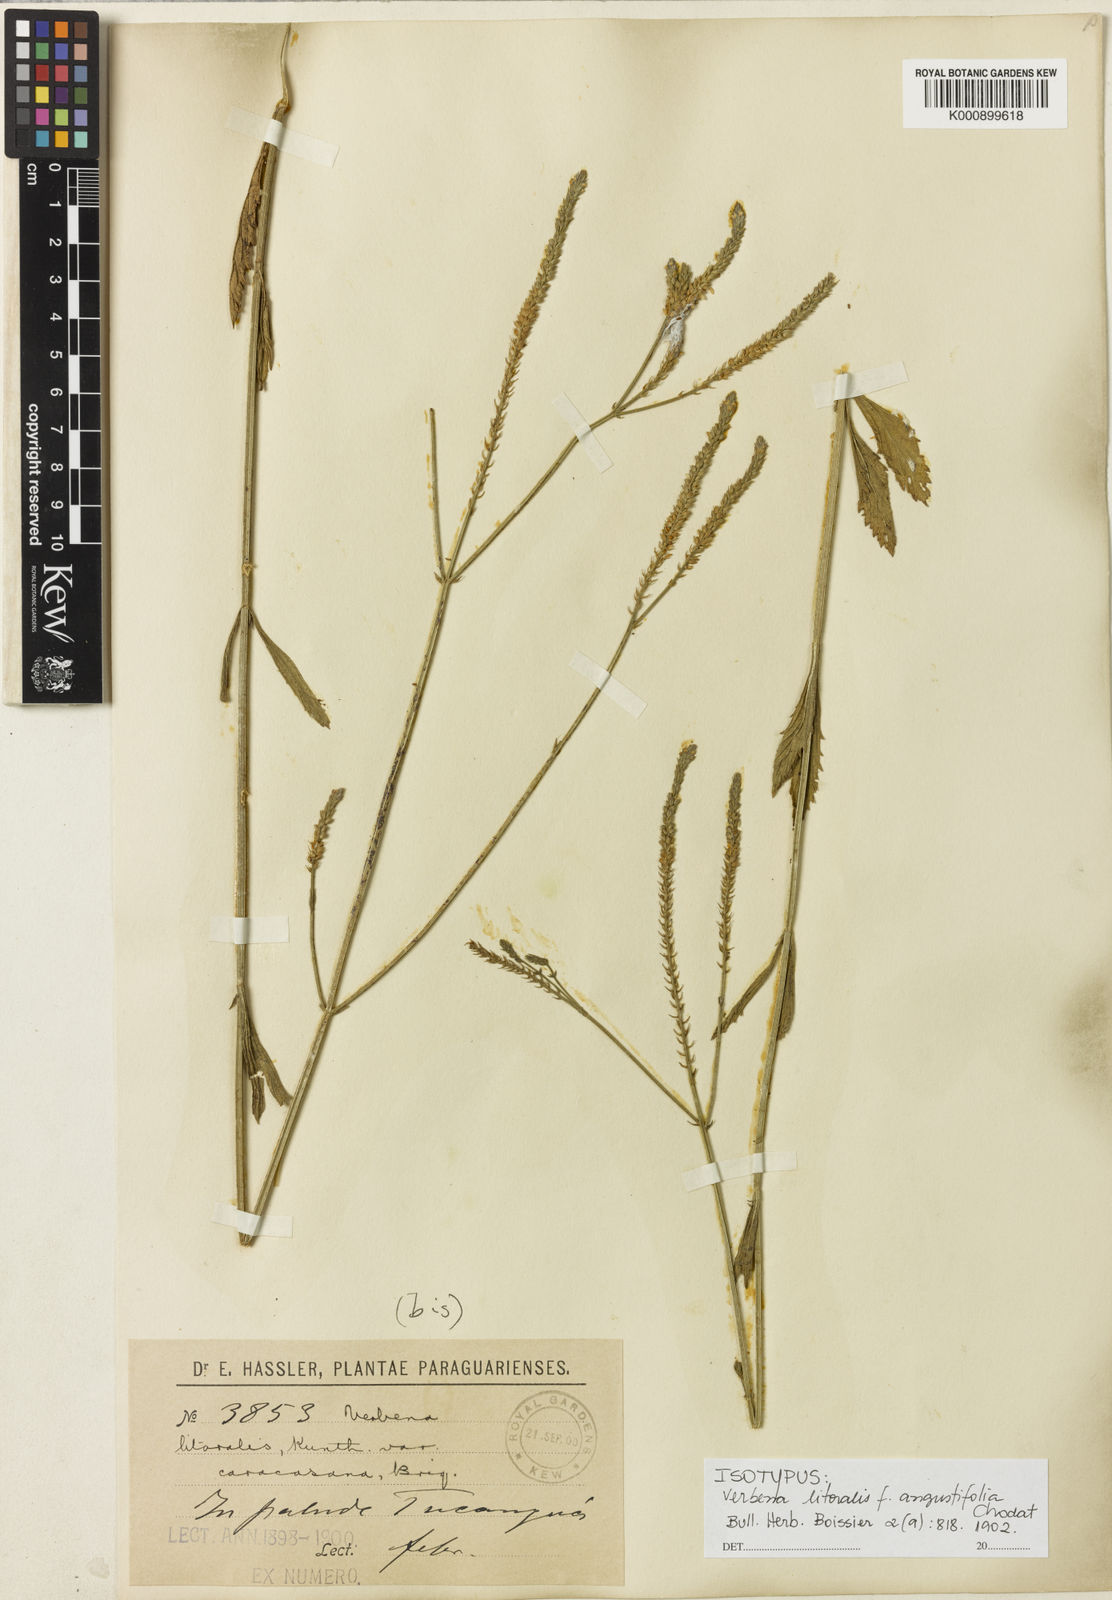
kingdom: Plantae
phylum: Tracheophyta
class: Magnoliopsida
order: Lamiales
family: Verbenaceae
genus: Verbena
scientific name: Verbena brasiliensis
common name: Brazilian vervain
